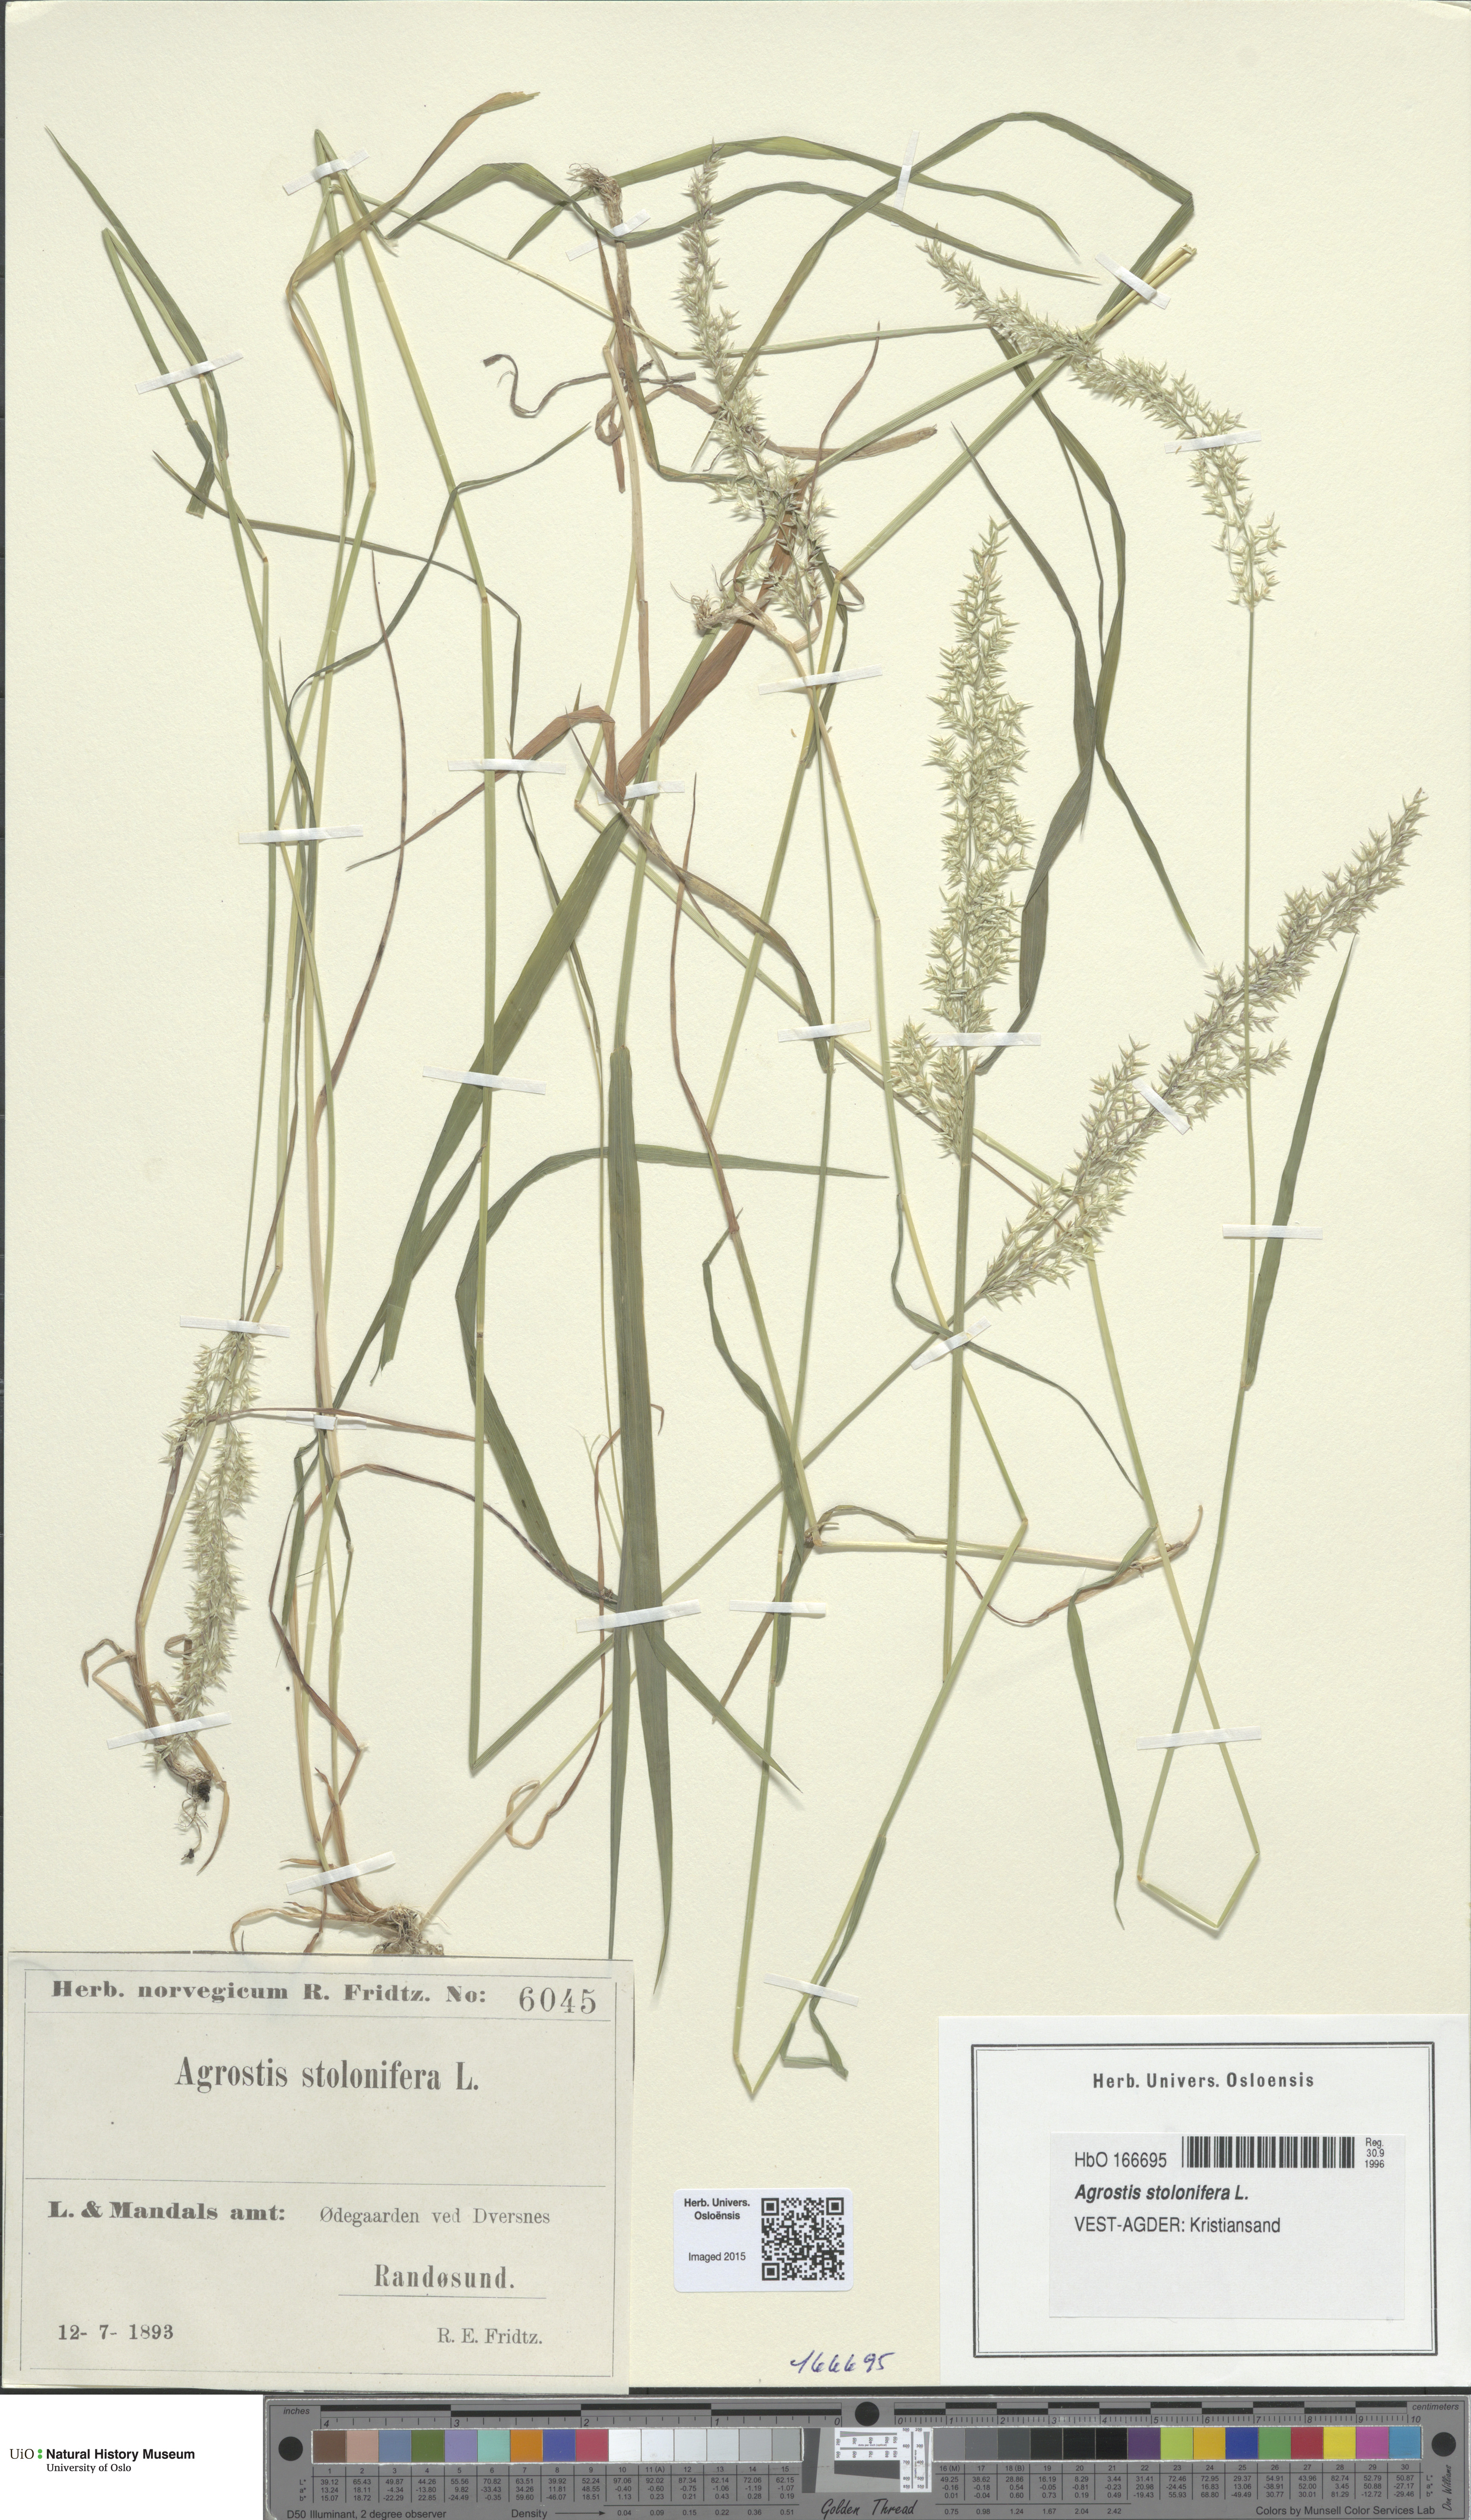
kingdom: Plantae
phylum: Tracheophyta
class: Liliopsida
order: Poales
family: Poaceae
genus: Agrostis
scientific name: Agrostis stolonifera
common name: Creeping bentgrass
